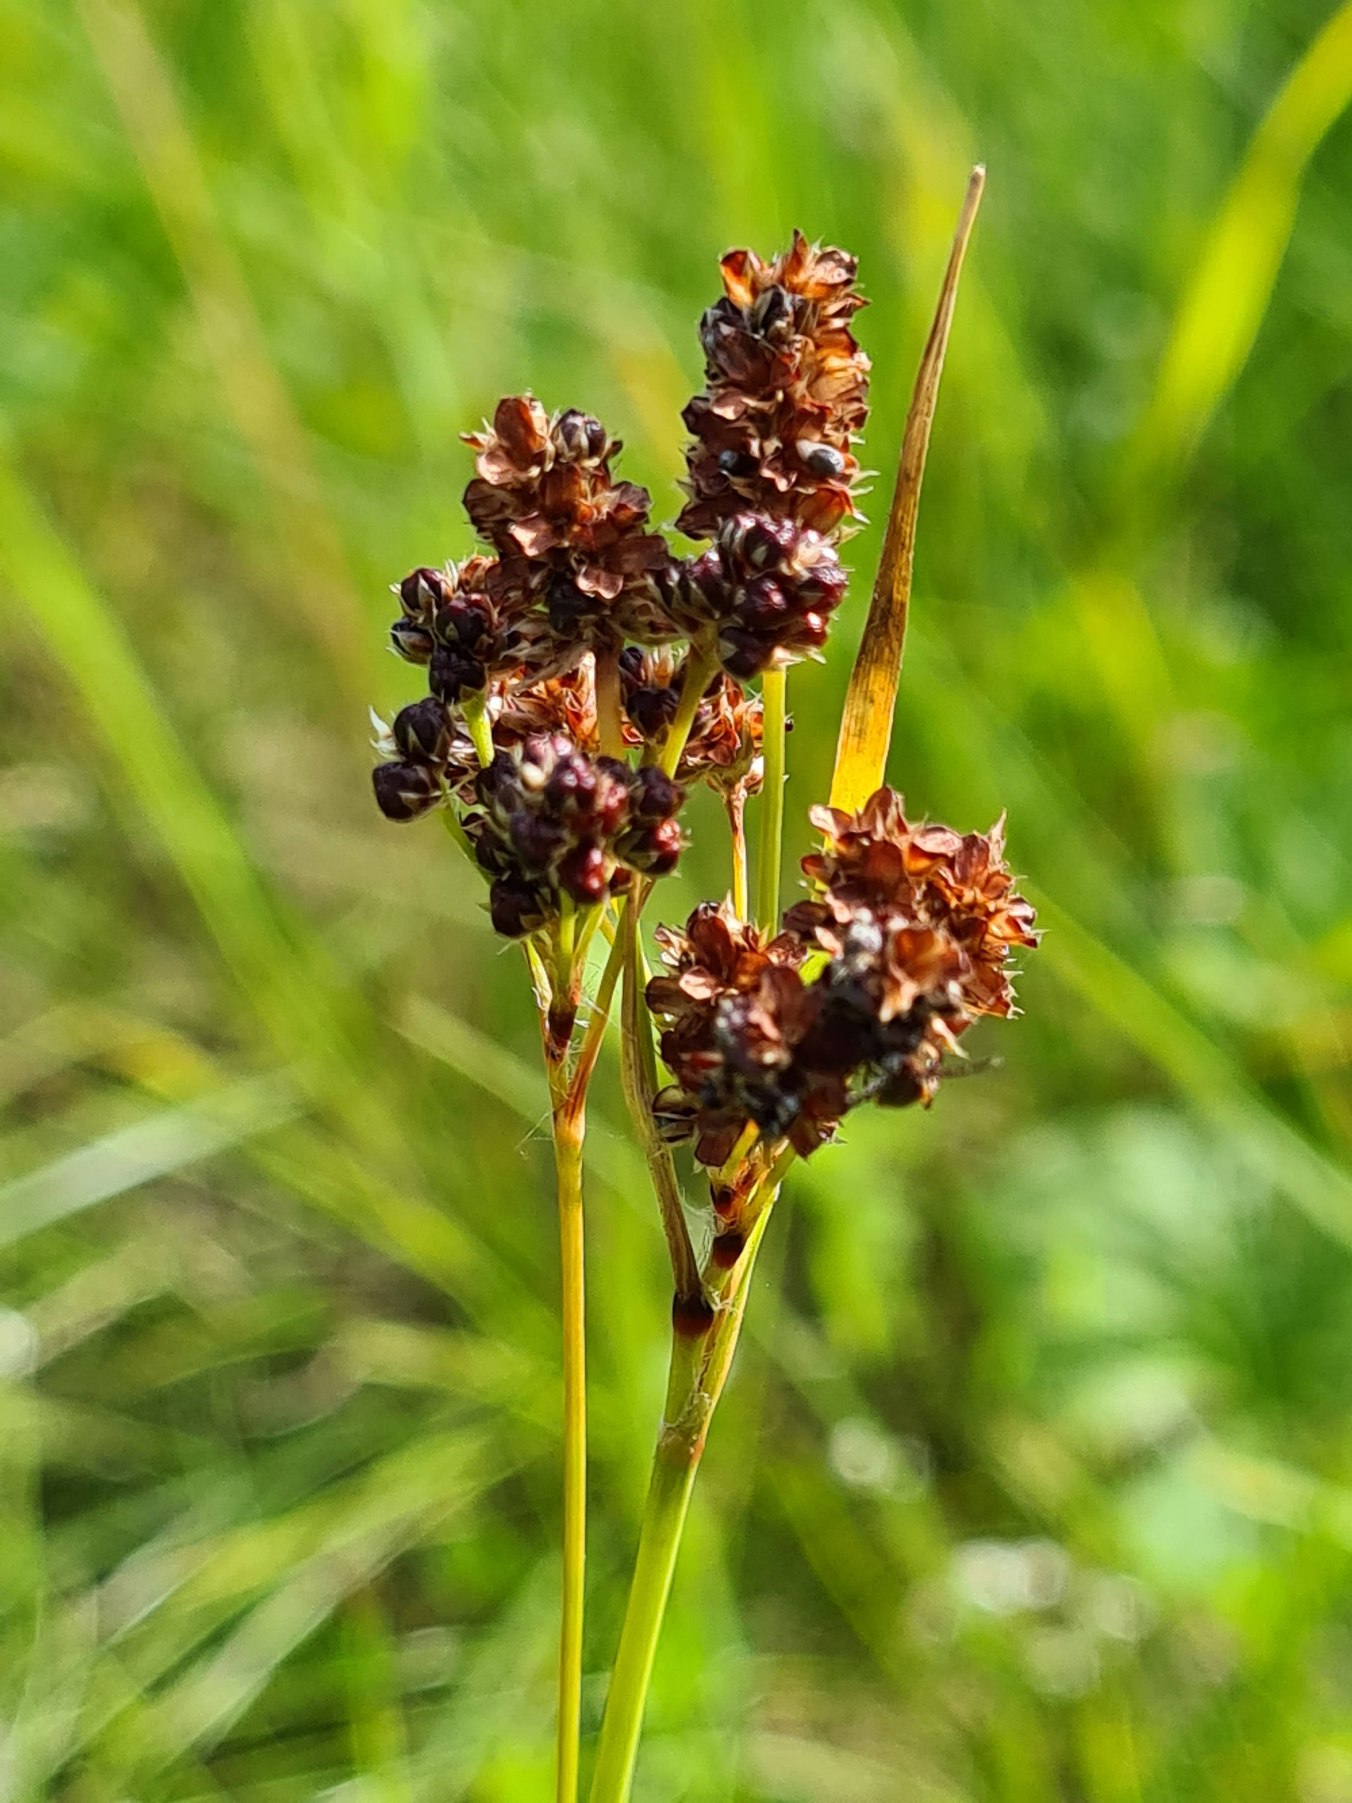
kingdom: Plantae
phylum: Tracheophyta
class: Liliopsida
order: Poales
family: Juncaceae
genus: Luzula
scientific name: Luzula multiflora
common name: Mangeblomstret frytle
